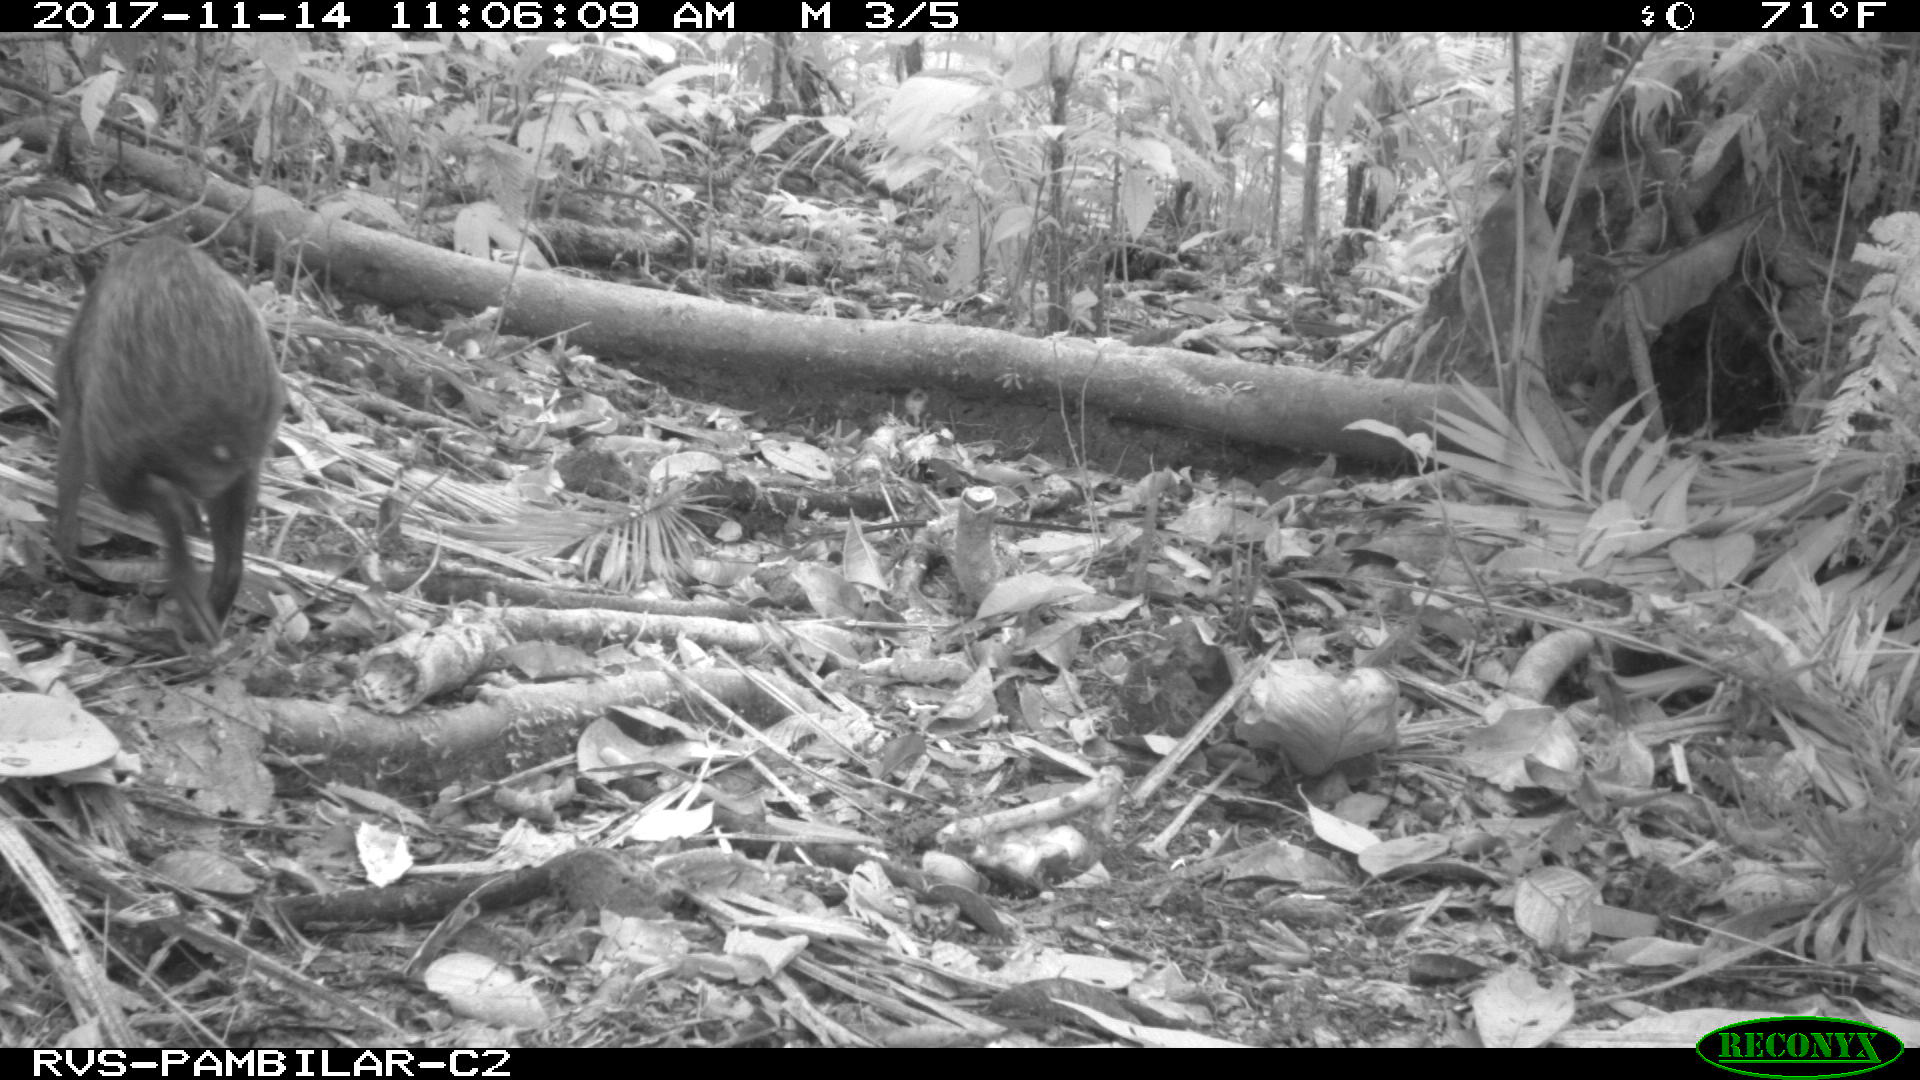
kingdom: Animalia
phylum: Chordata
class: Mammalia
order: Rodentia
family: Dasyproctidae
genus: Dasyprocta
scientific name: Dasyprocta punctata
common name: Central american agouti
